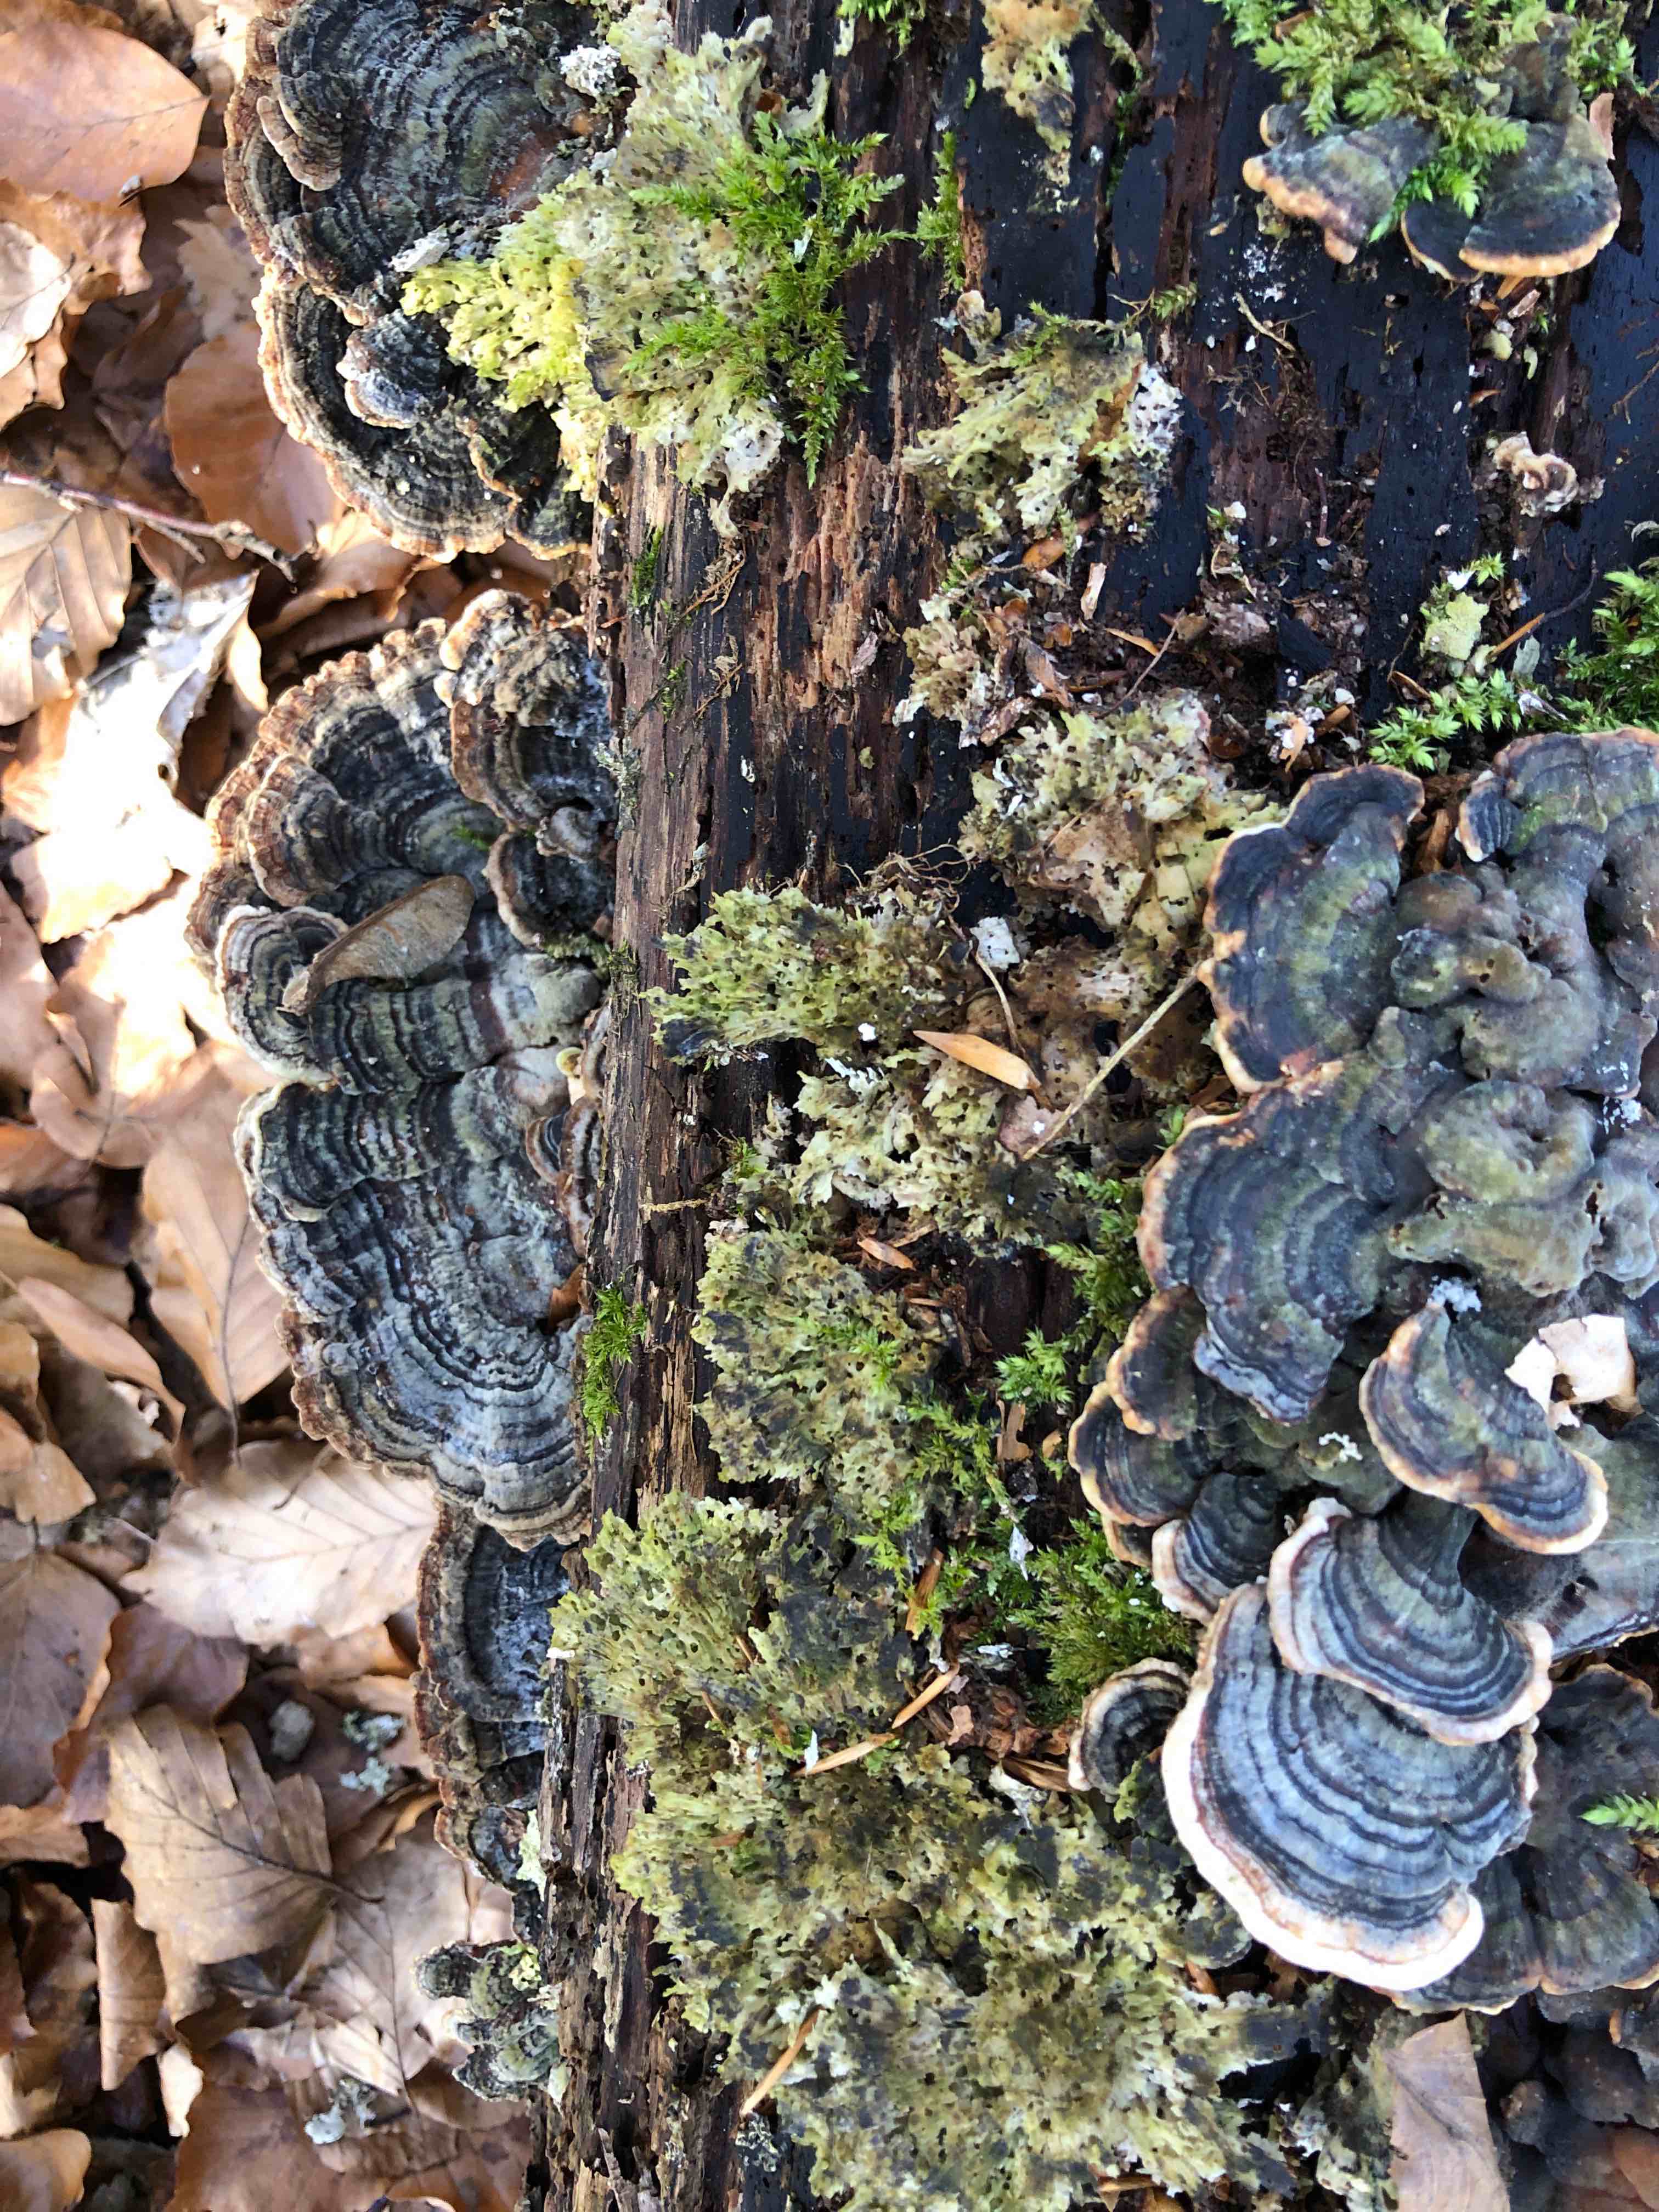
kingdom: Fungi
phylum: Basidiomycota
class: Agaricomycetes
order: Polyporales
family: Polyporaceae
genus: Trametes
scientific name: Trametes versicolor
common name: broget læderporesvamp
